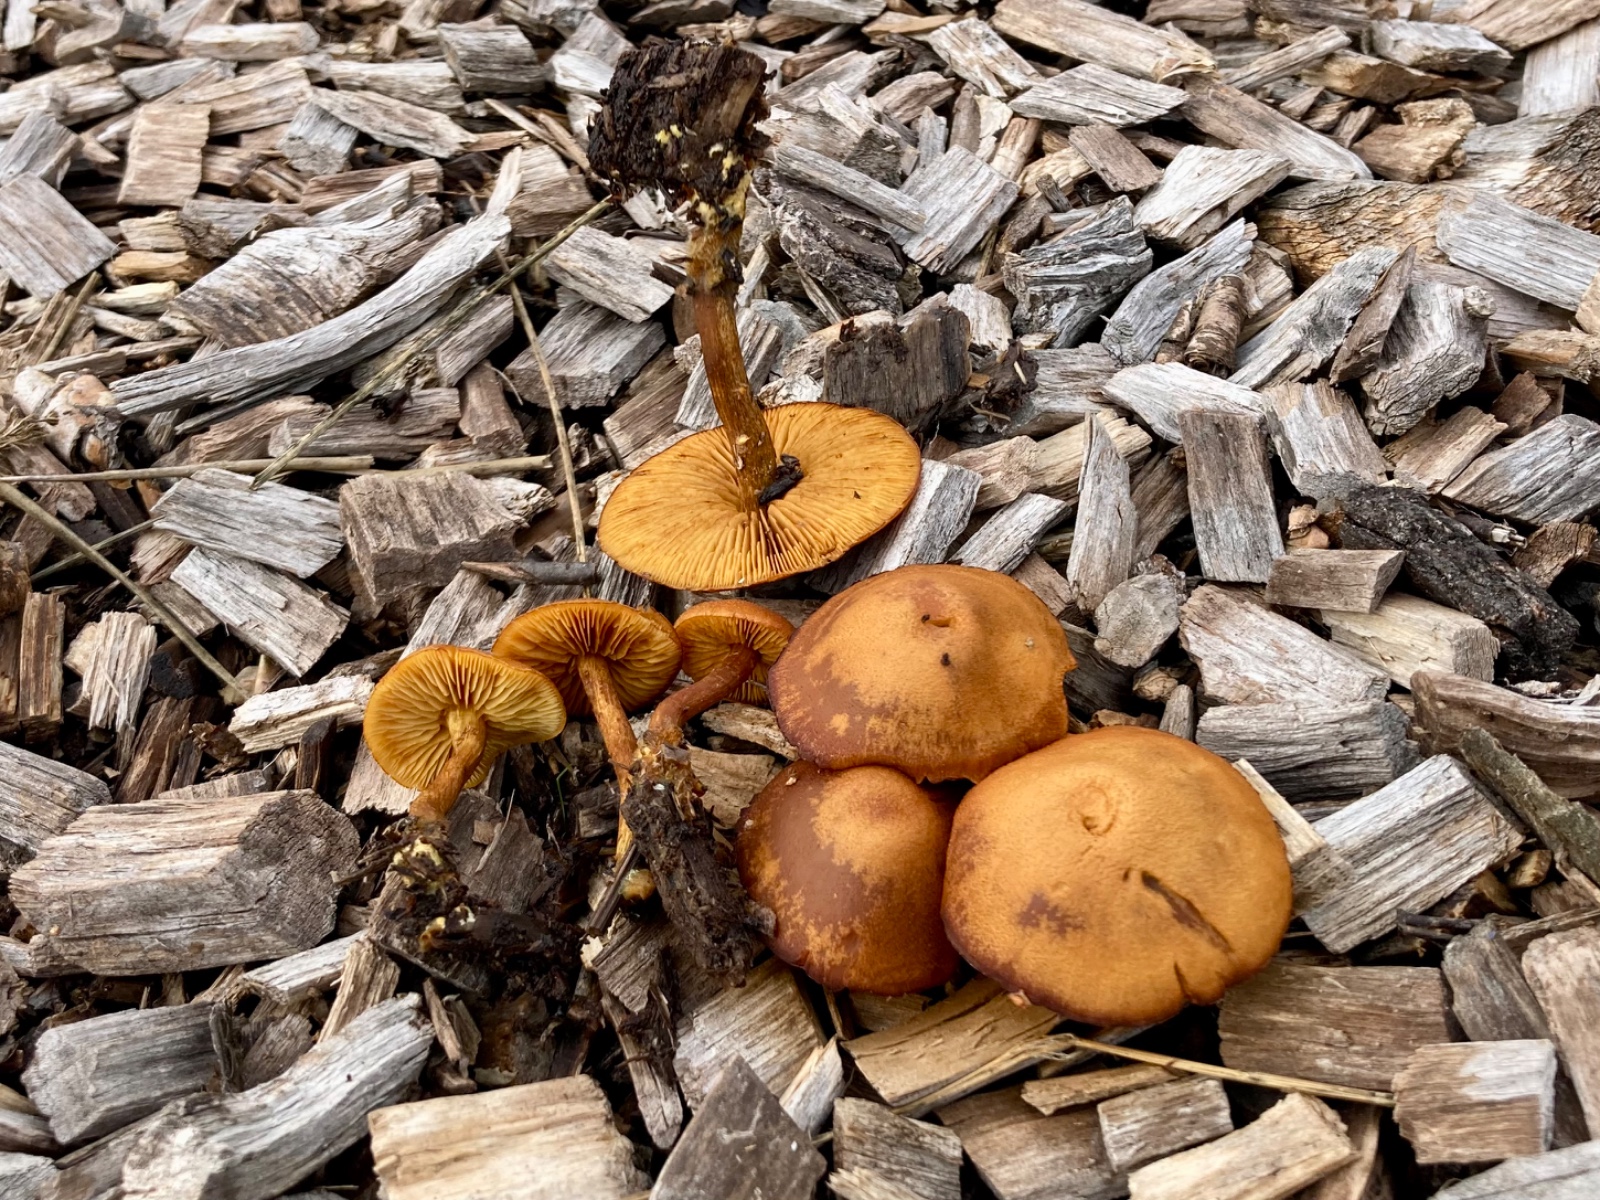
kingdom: Fungi
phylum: Basidiomycota
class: Agaricomycetes
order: Agaricales
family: Tubariaceae
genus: Flammulaster
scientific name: Flammulaster limulatus
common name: gylden grynskælhat
